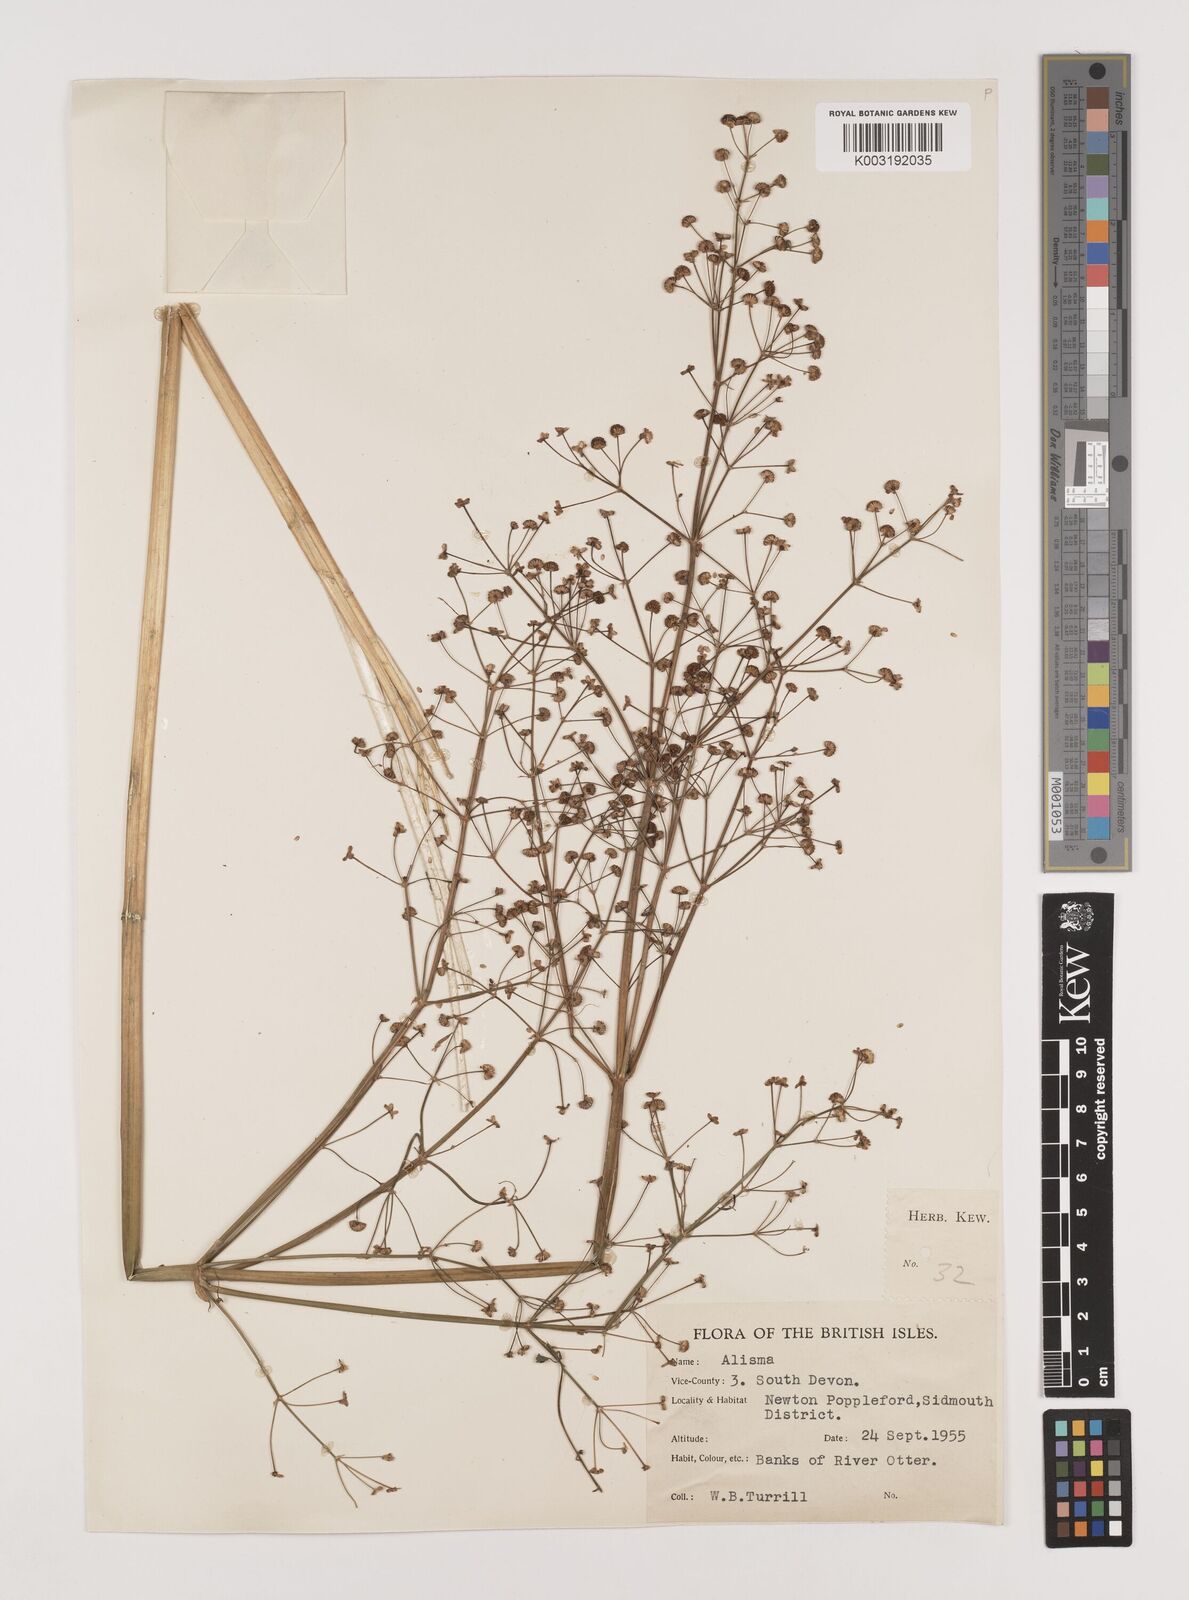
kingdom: Plantae
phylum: Tracheophyta
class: Liliopsida
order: Alismatales
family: Alismataceae
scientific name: Alismataceae
